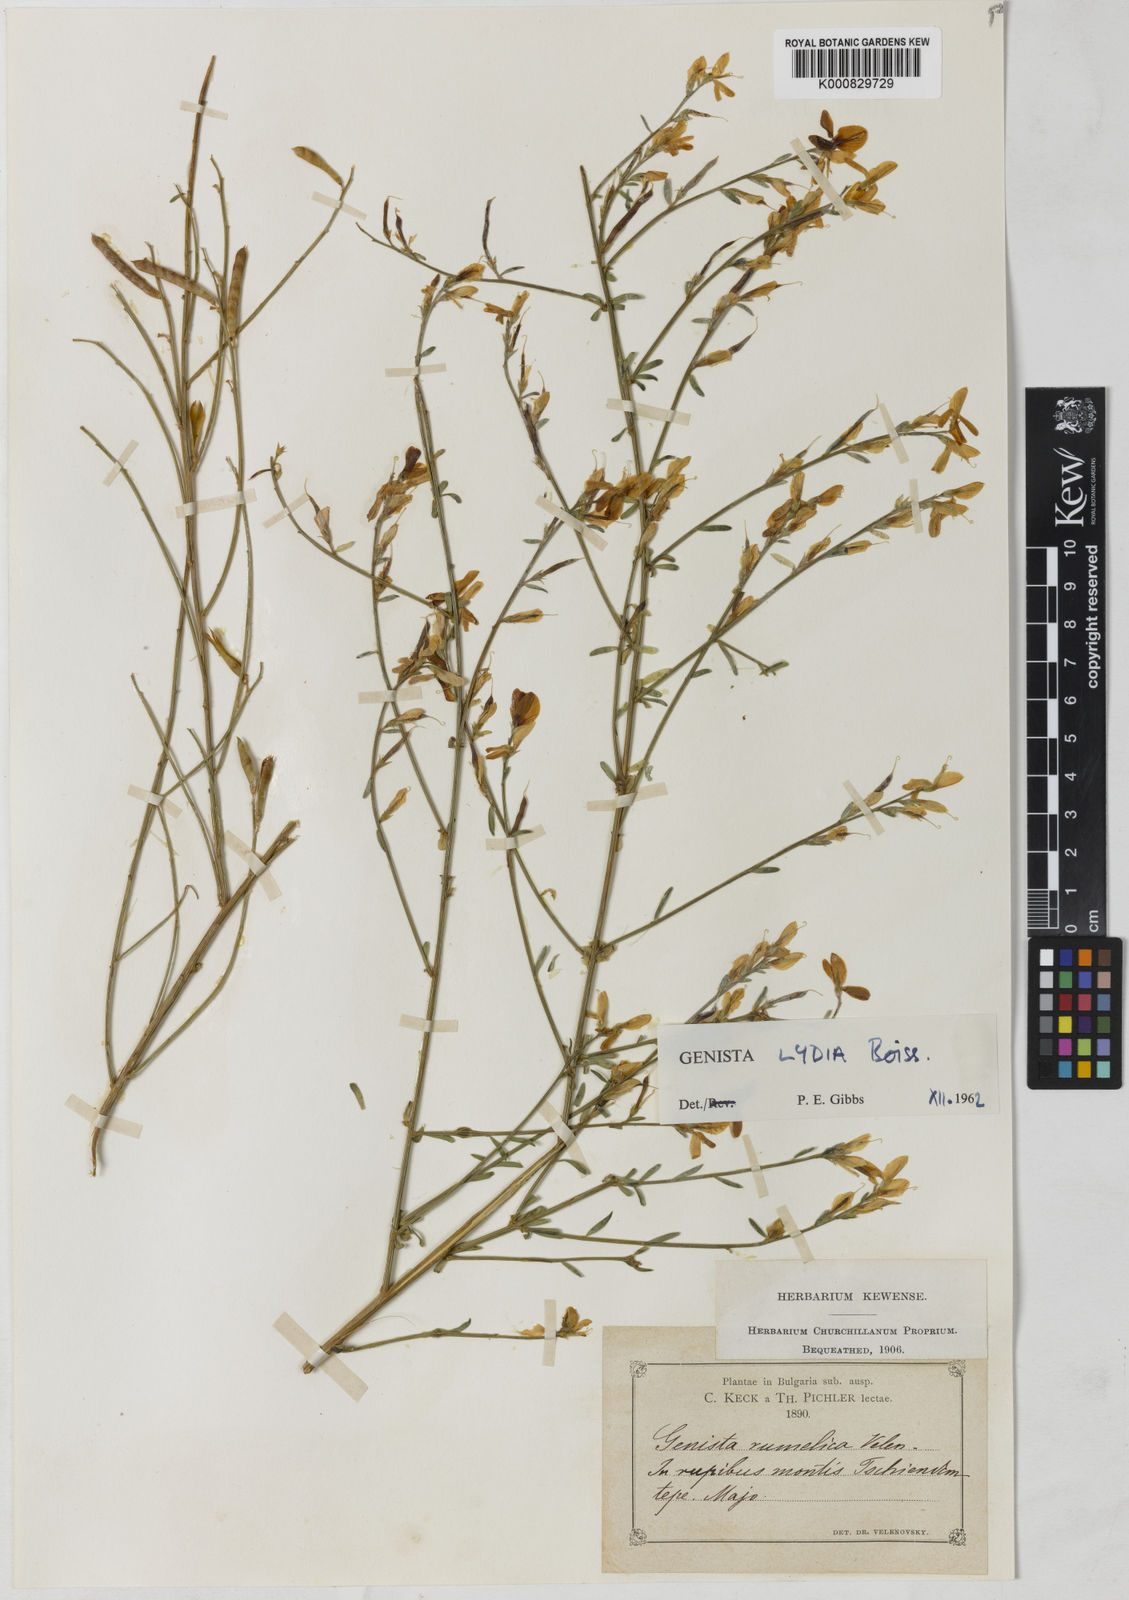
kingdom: Plantae
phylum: Tracheophyta
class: Magnoliopsida
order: Fabales
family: Fabaceae
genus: Genista
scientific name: Genista lydia
